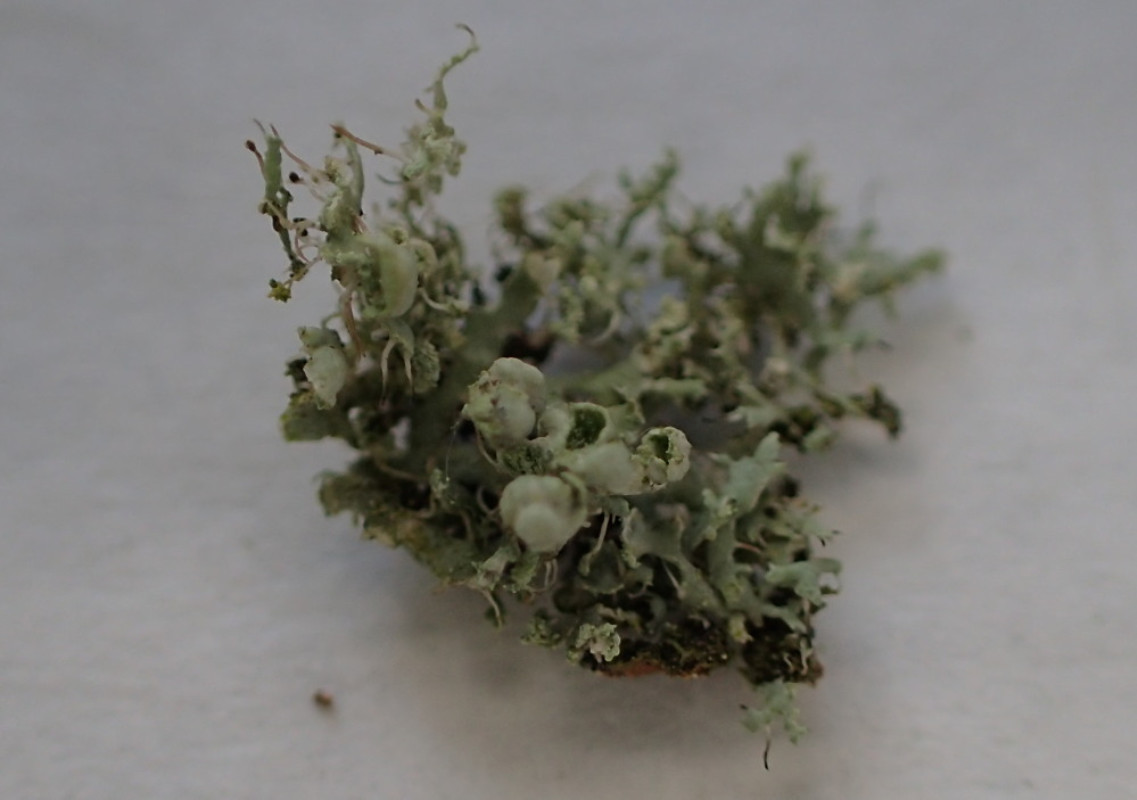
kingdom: Fungi
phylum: Ascomycota
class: Lecanoromycetes
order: Caliciales
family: Physciaceae
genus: Physcia
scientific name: Physcia adscendens
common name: hætte-rosetlav
